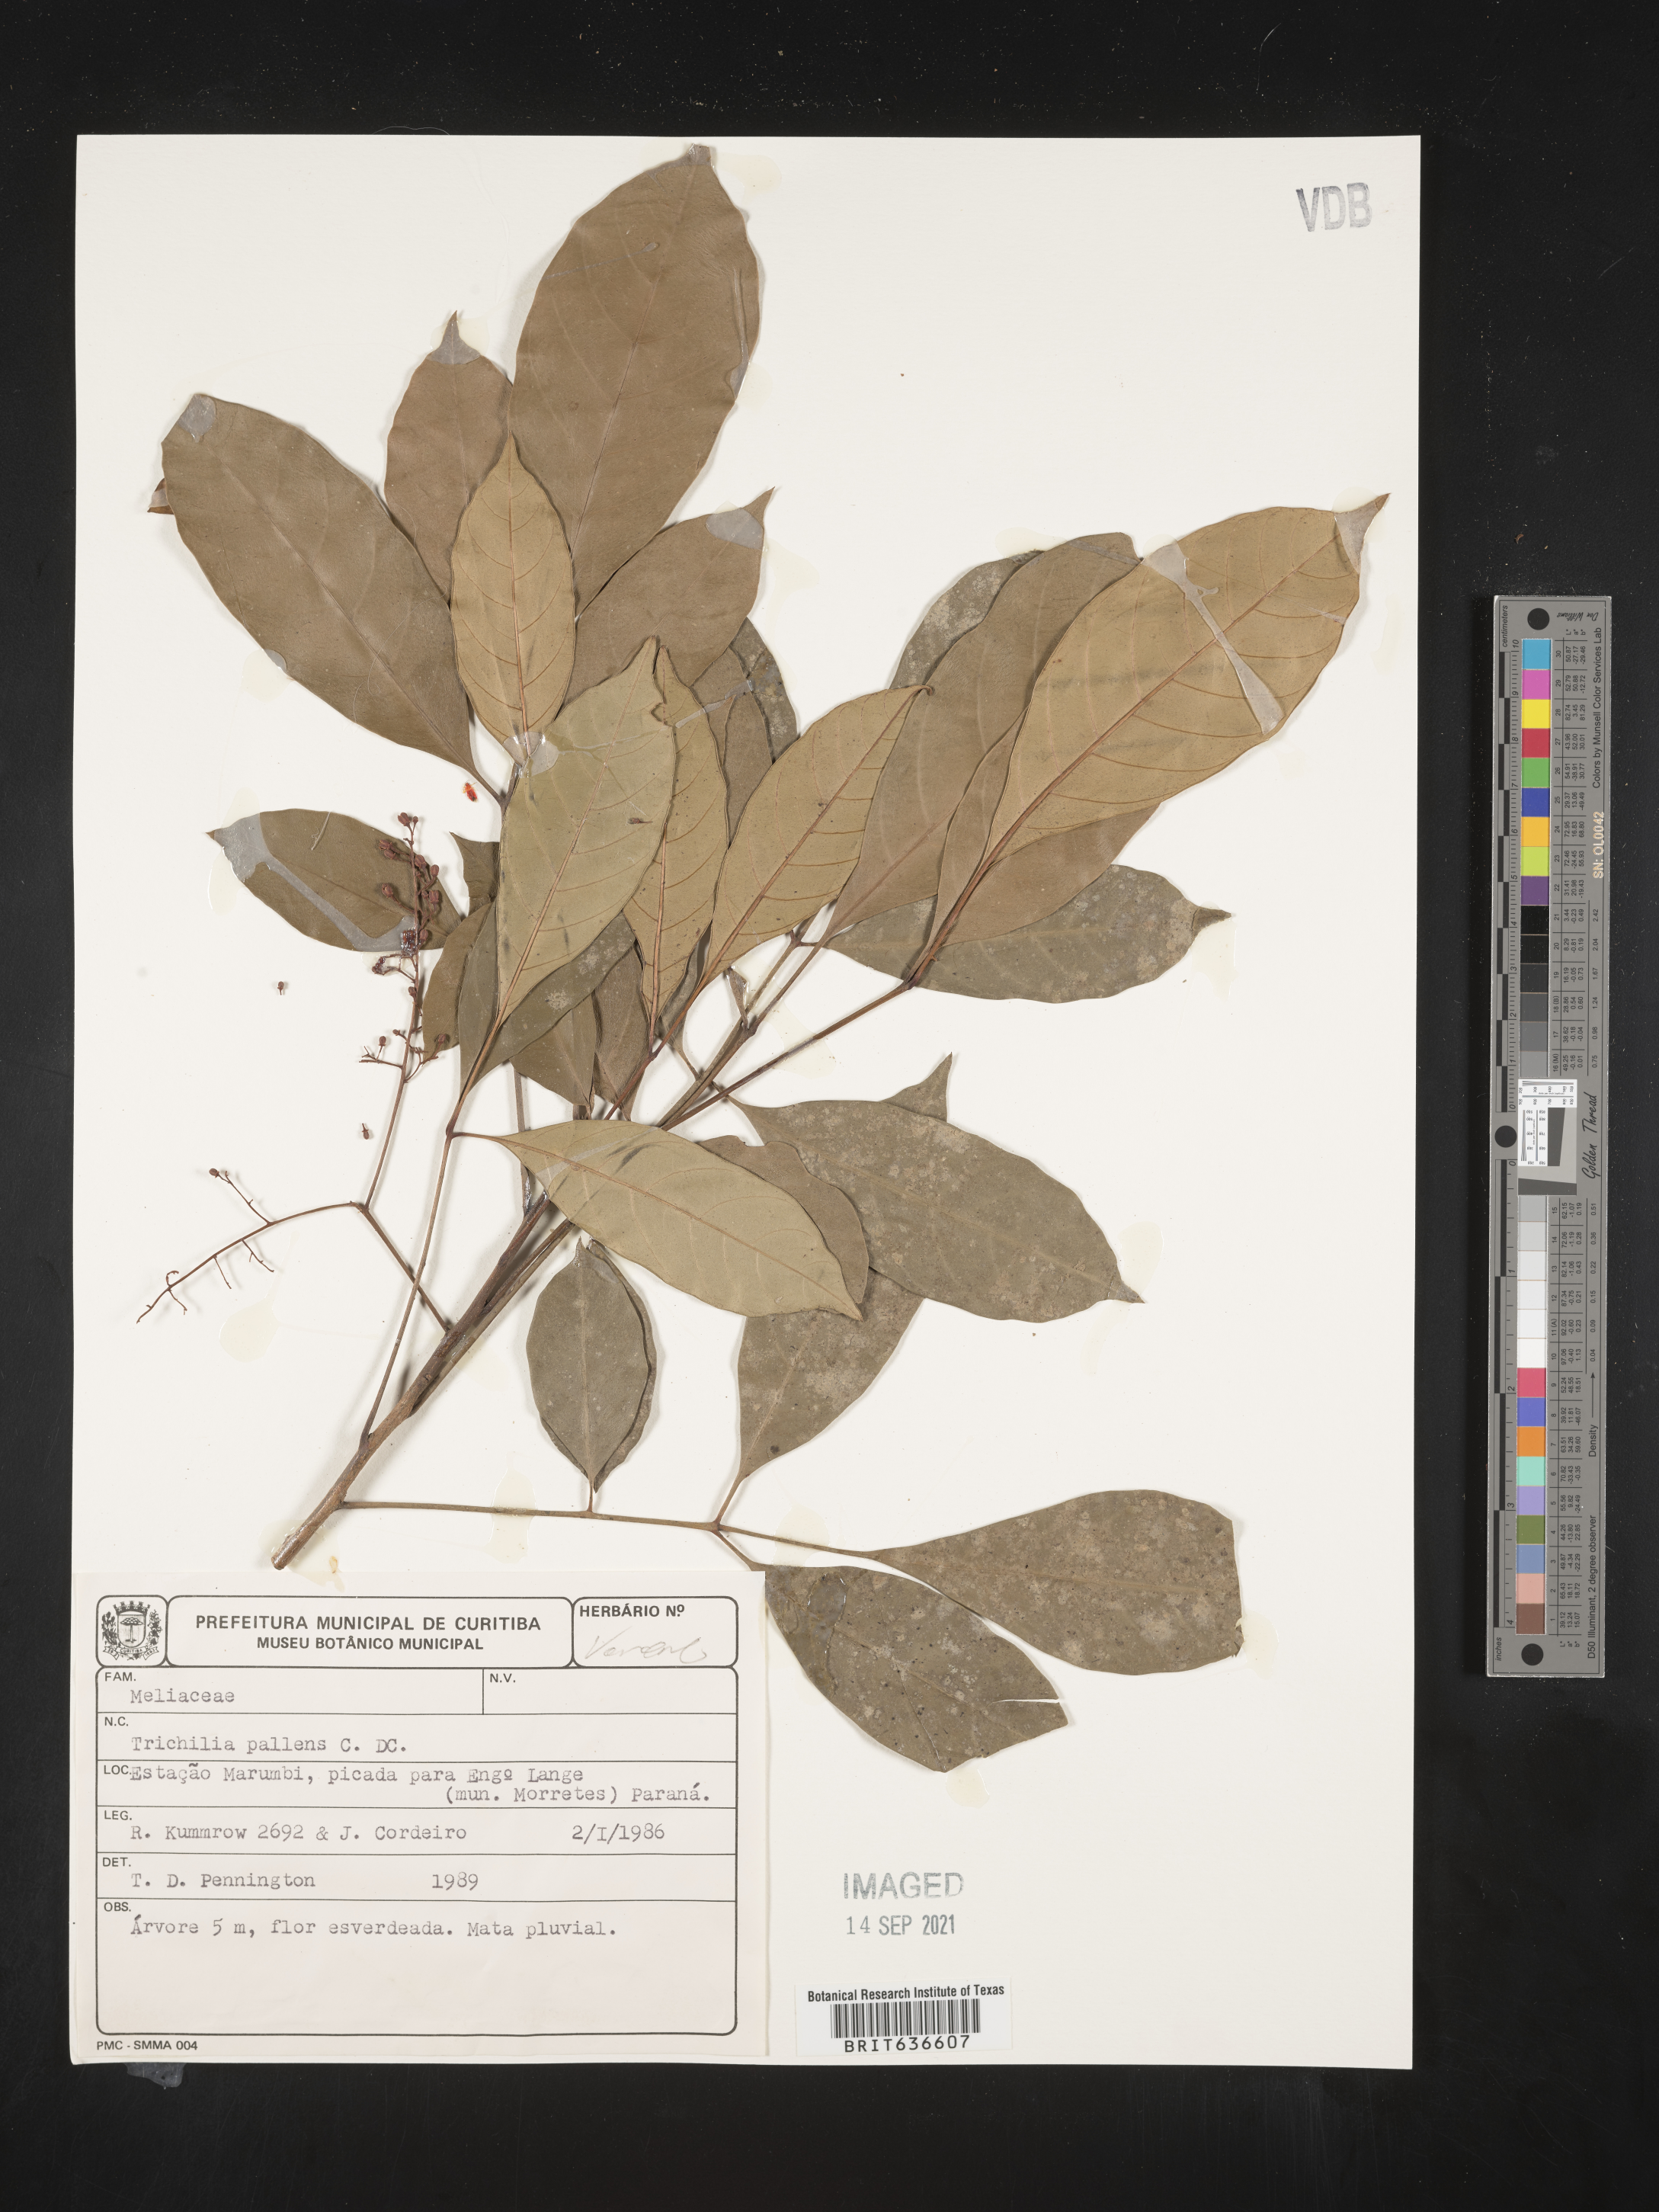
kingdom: Plantae
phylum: Tracheophyta
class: Magnoliopsida
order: Sapindales
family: Meliaceae
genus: Trichilia
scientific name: Trichilia
